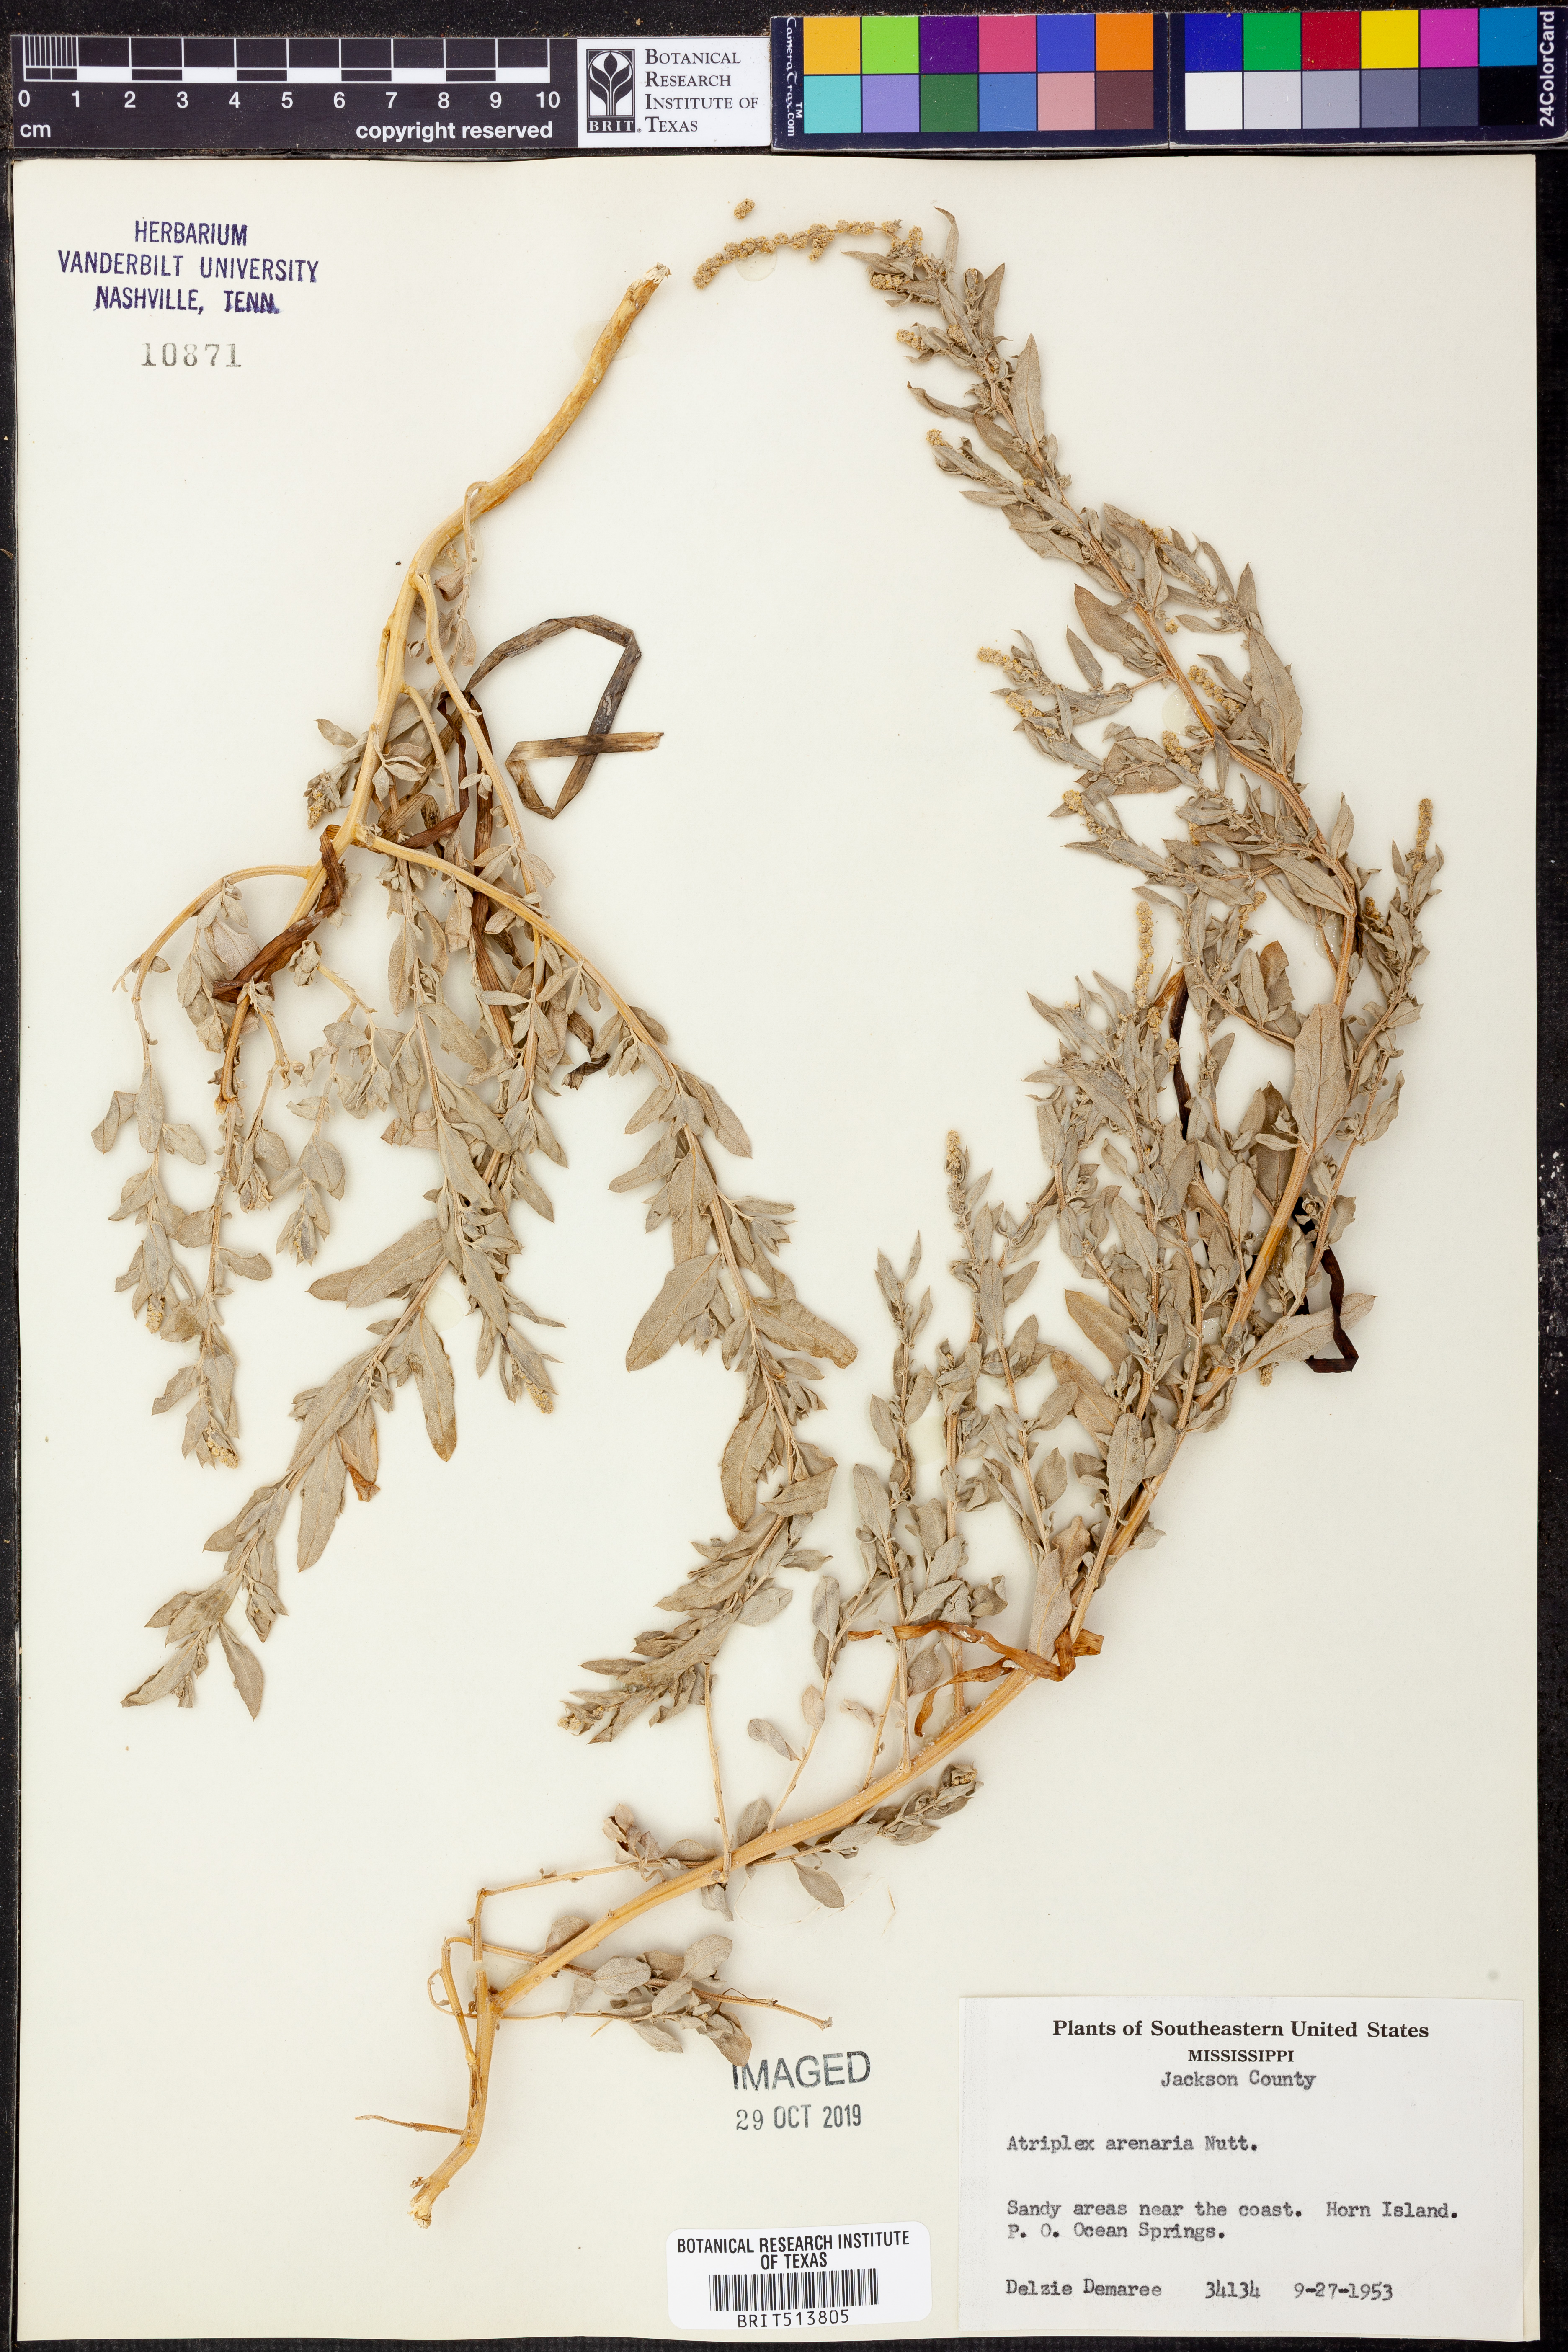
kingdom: Plantae
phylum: Tracheophyta
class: Magnoliopsida
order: Caryophyllales
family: Amaranthaceae
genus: Atriplex
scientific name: Atriplex mucronata
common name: Quelite
